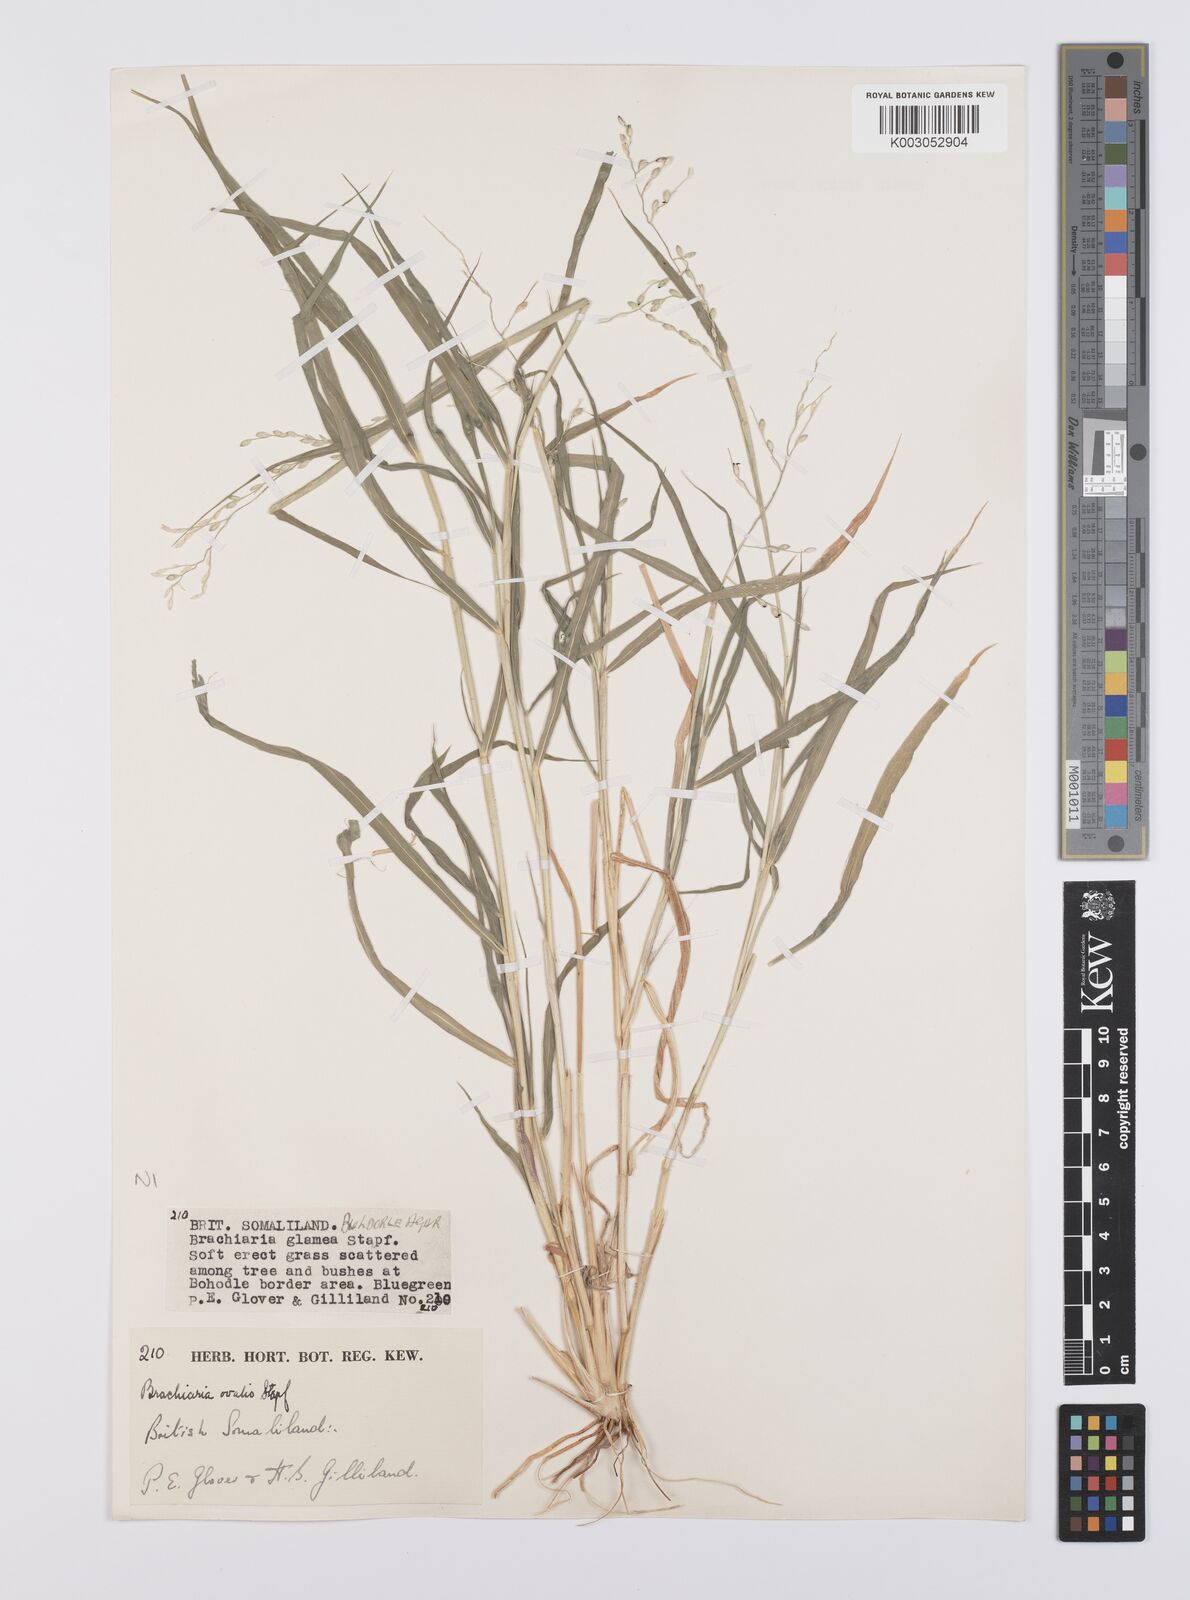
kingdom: Plantae
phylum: Tracheophyta
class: Liliopsida
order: Poales
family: Poaceae
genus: Urochloa
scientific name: Urochloa ovalis
